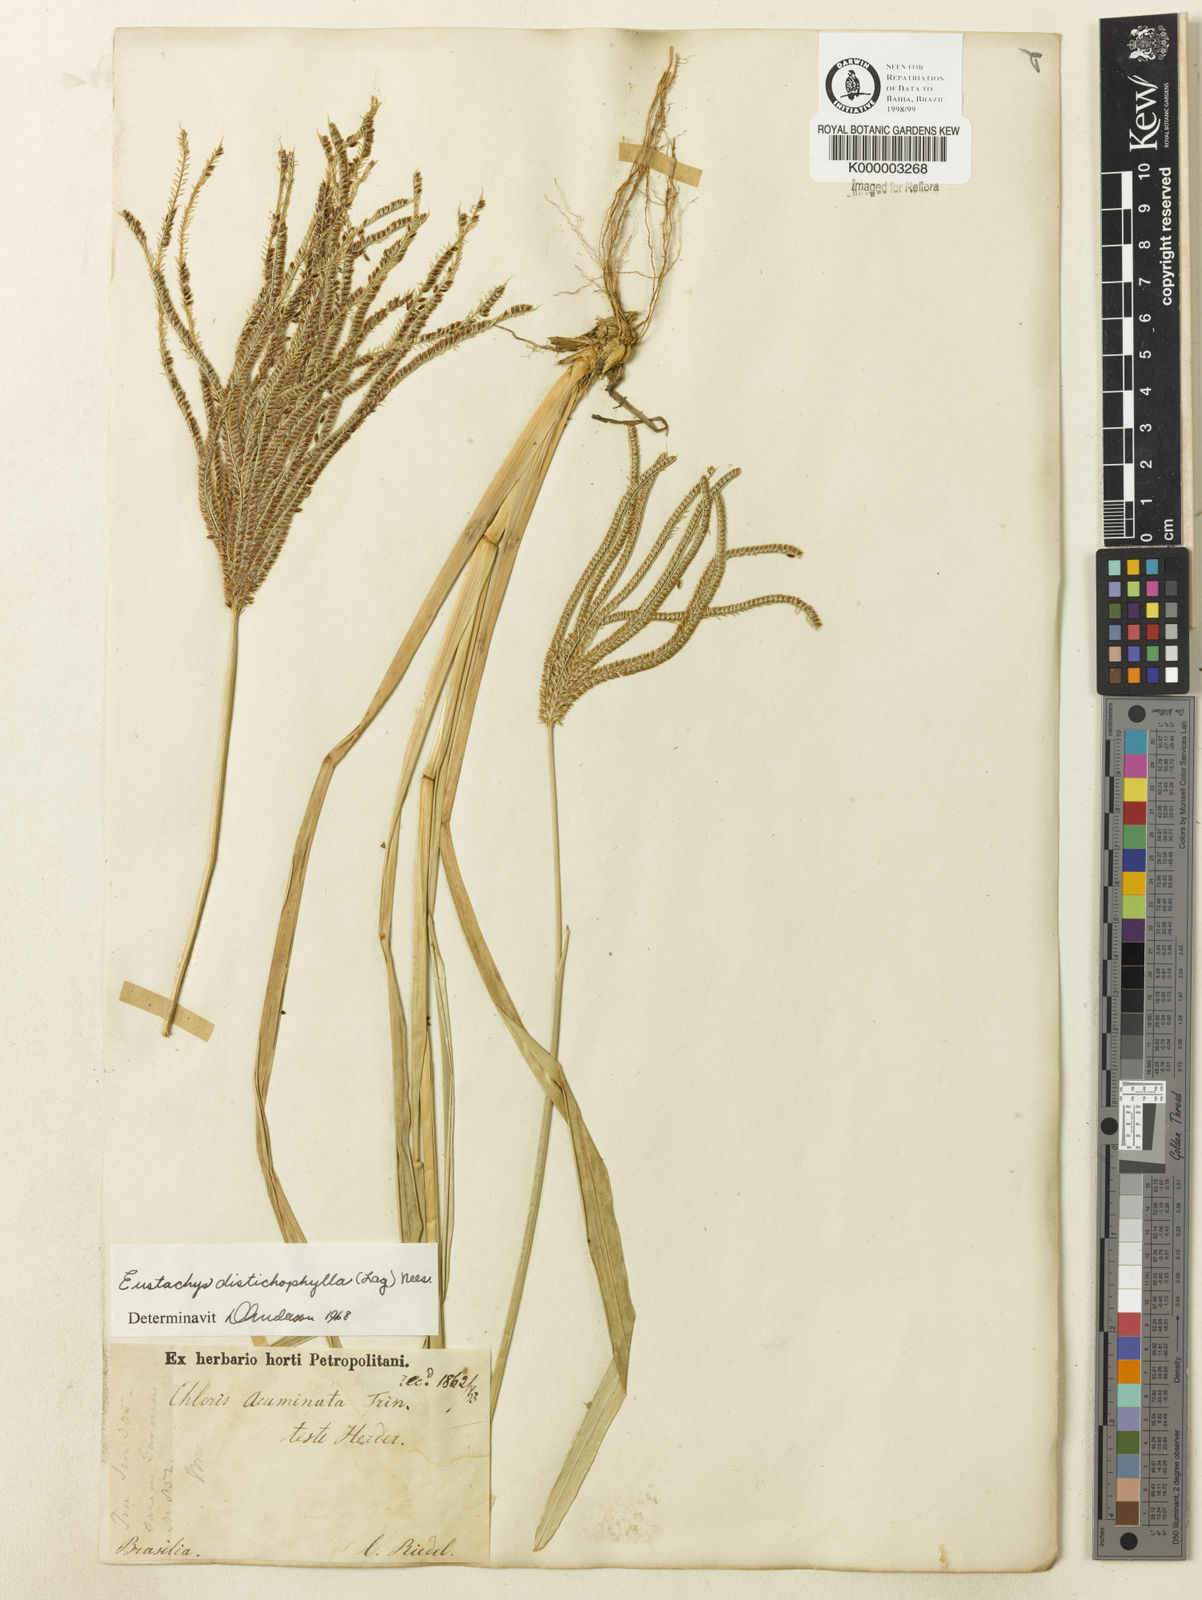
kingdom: Plantae
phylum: Tracheophyta
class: Liliopsida
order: Poales
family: Poaceae
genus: Eustachys
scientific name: Eustachys distichophylla
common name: Weeping fingergrass
